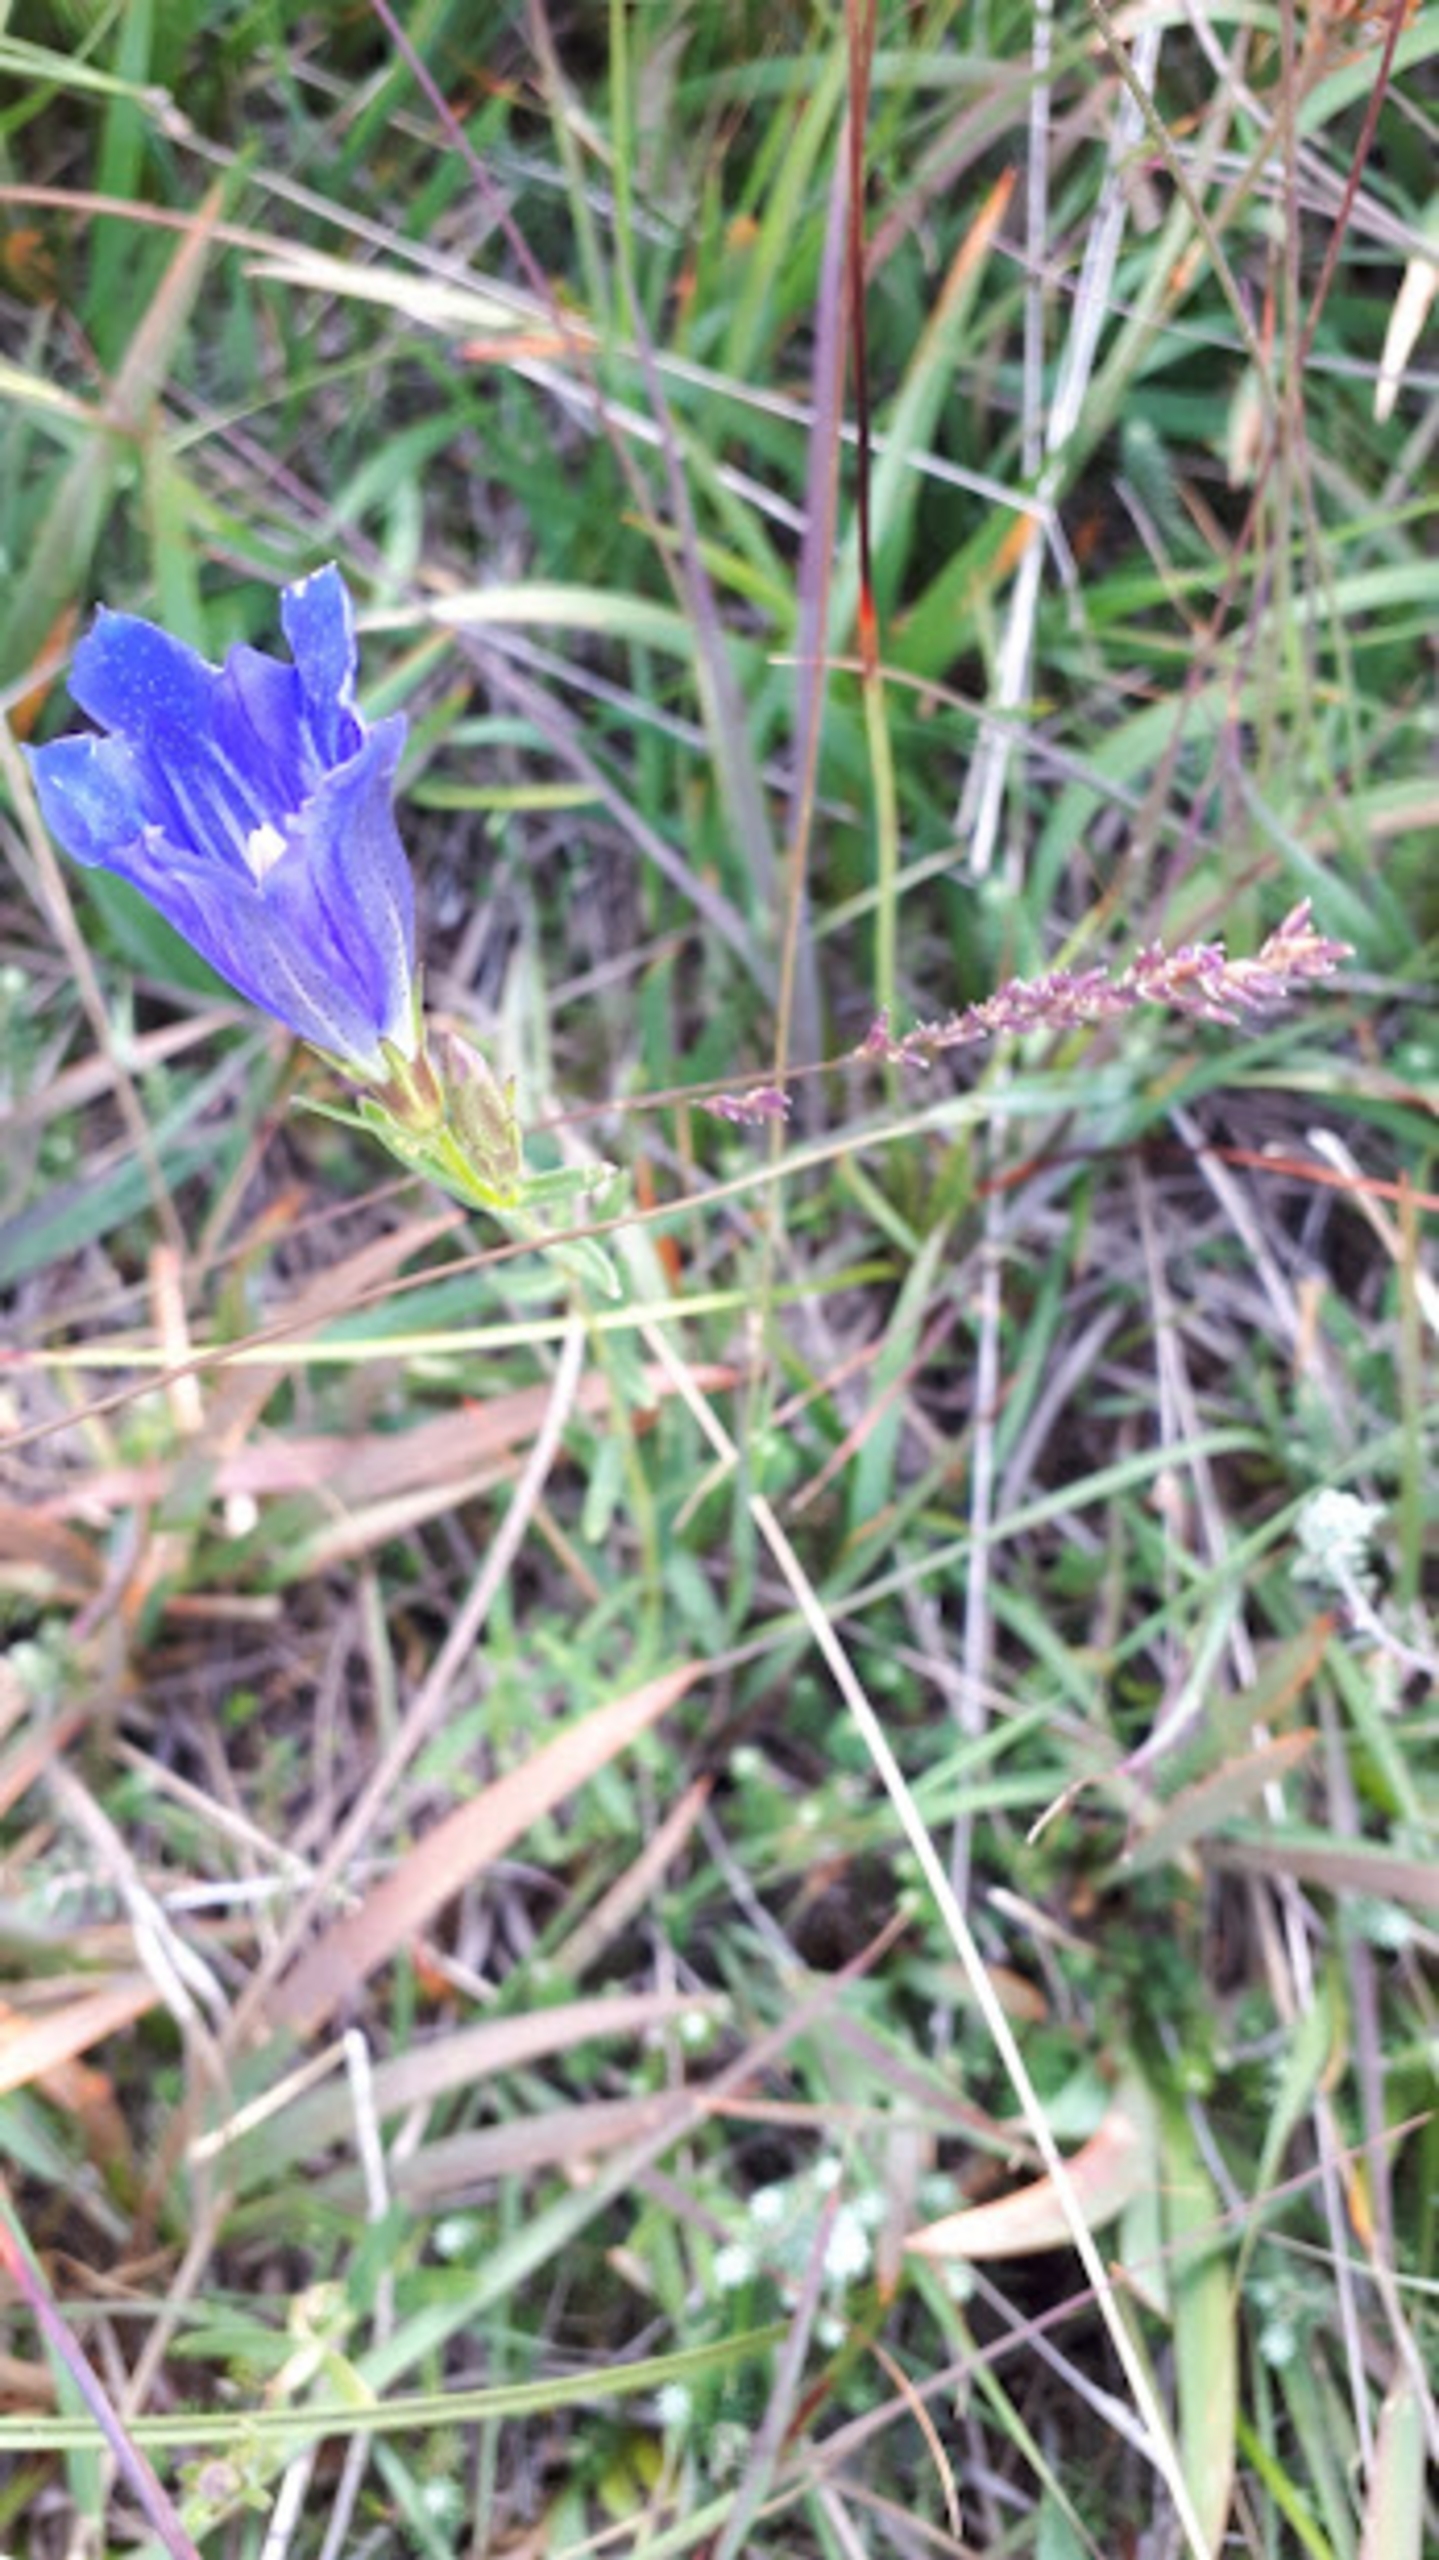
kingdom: Plantae
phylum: Tracheophyta
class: Magnoliopsida
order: Gentianales
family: Gentianaceae
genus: Gentiana
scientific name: Gentiana pneumonanthe
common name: Klokke-ensian
